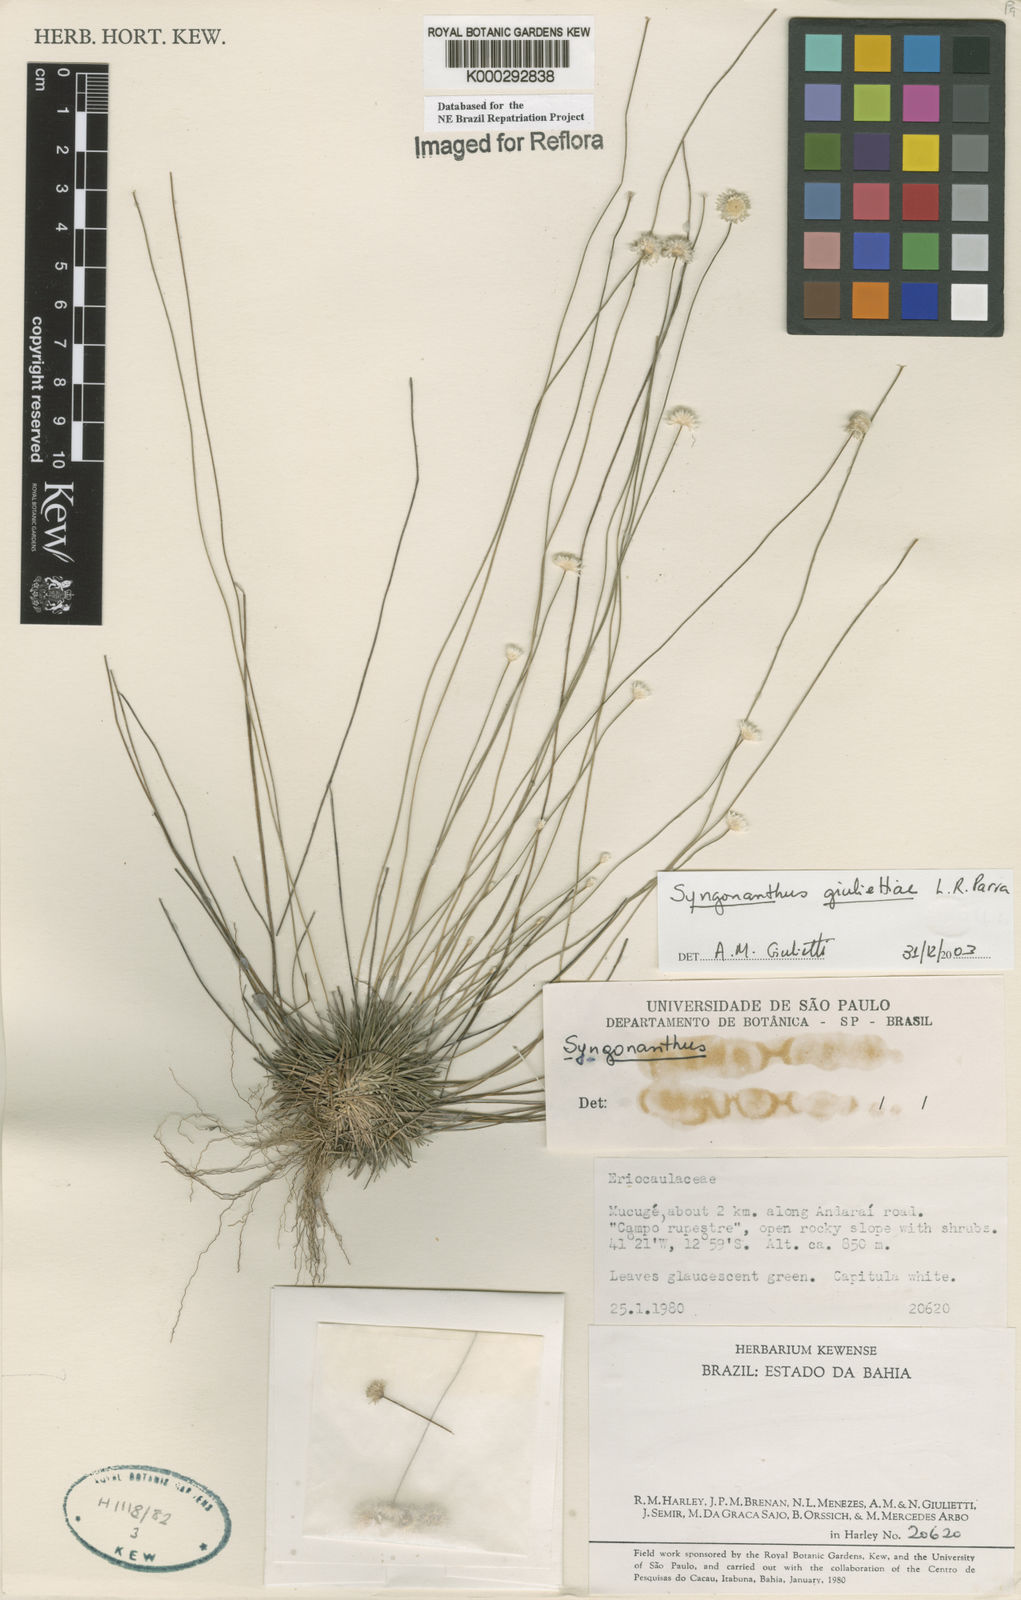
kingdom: Plantae
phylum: Tracheophyta
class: Liliopsida
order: Poales
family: Eriocaulaceae
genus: Syngonanthus
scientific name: Syngonanthus
